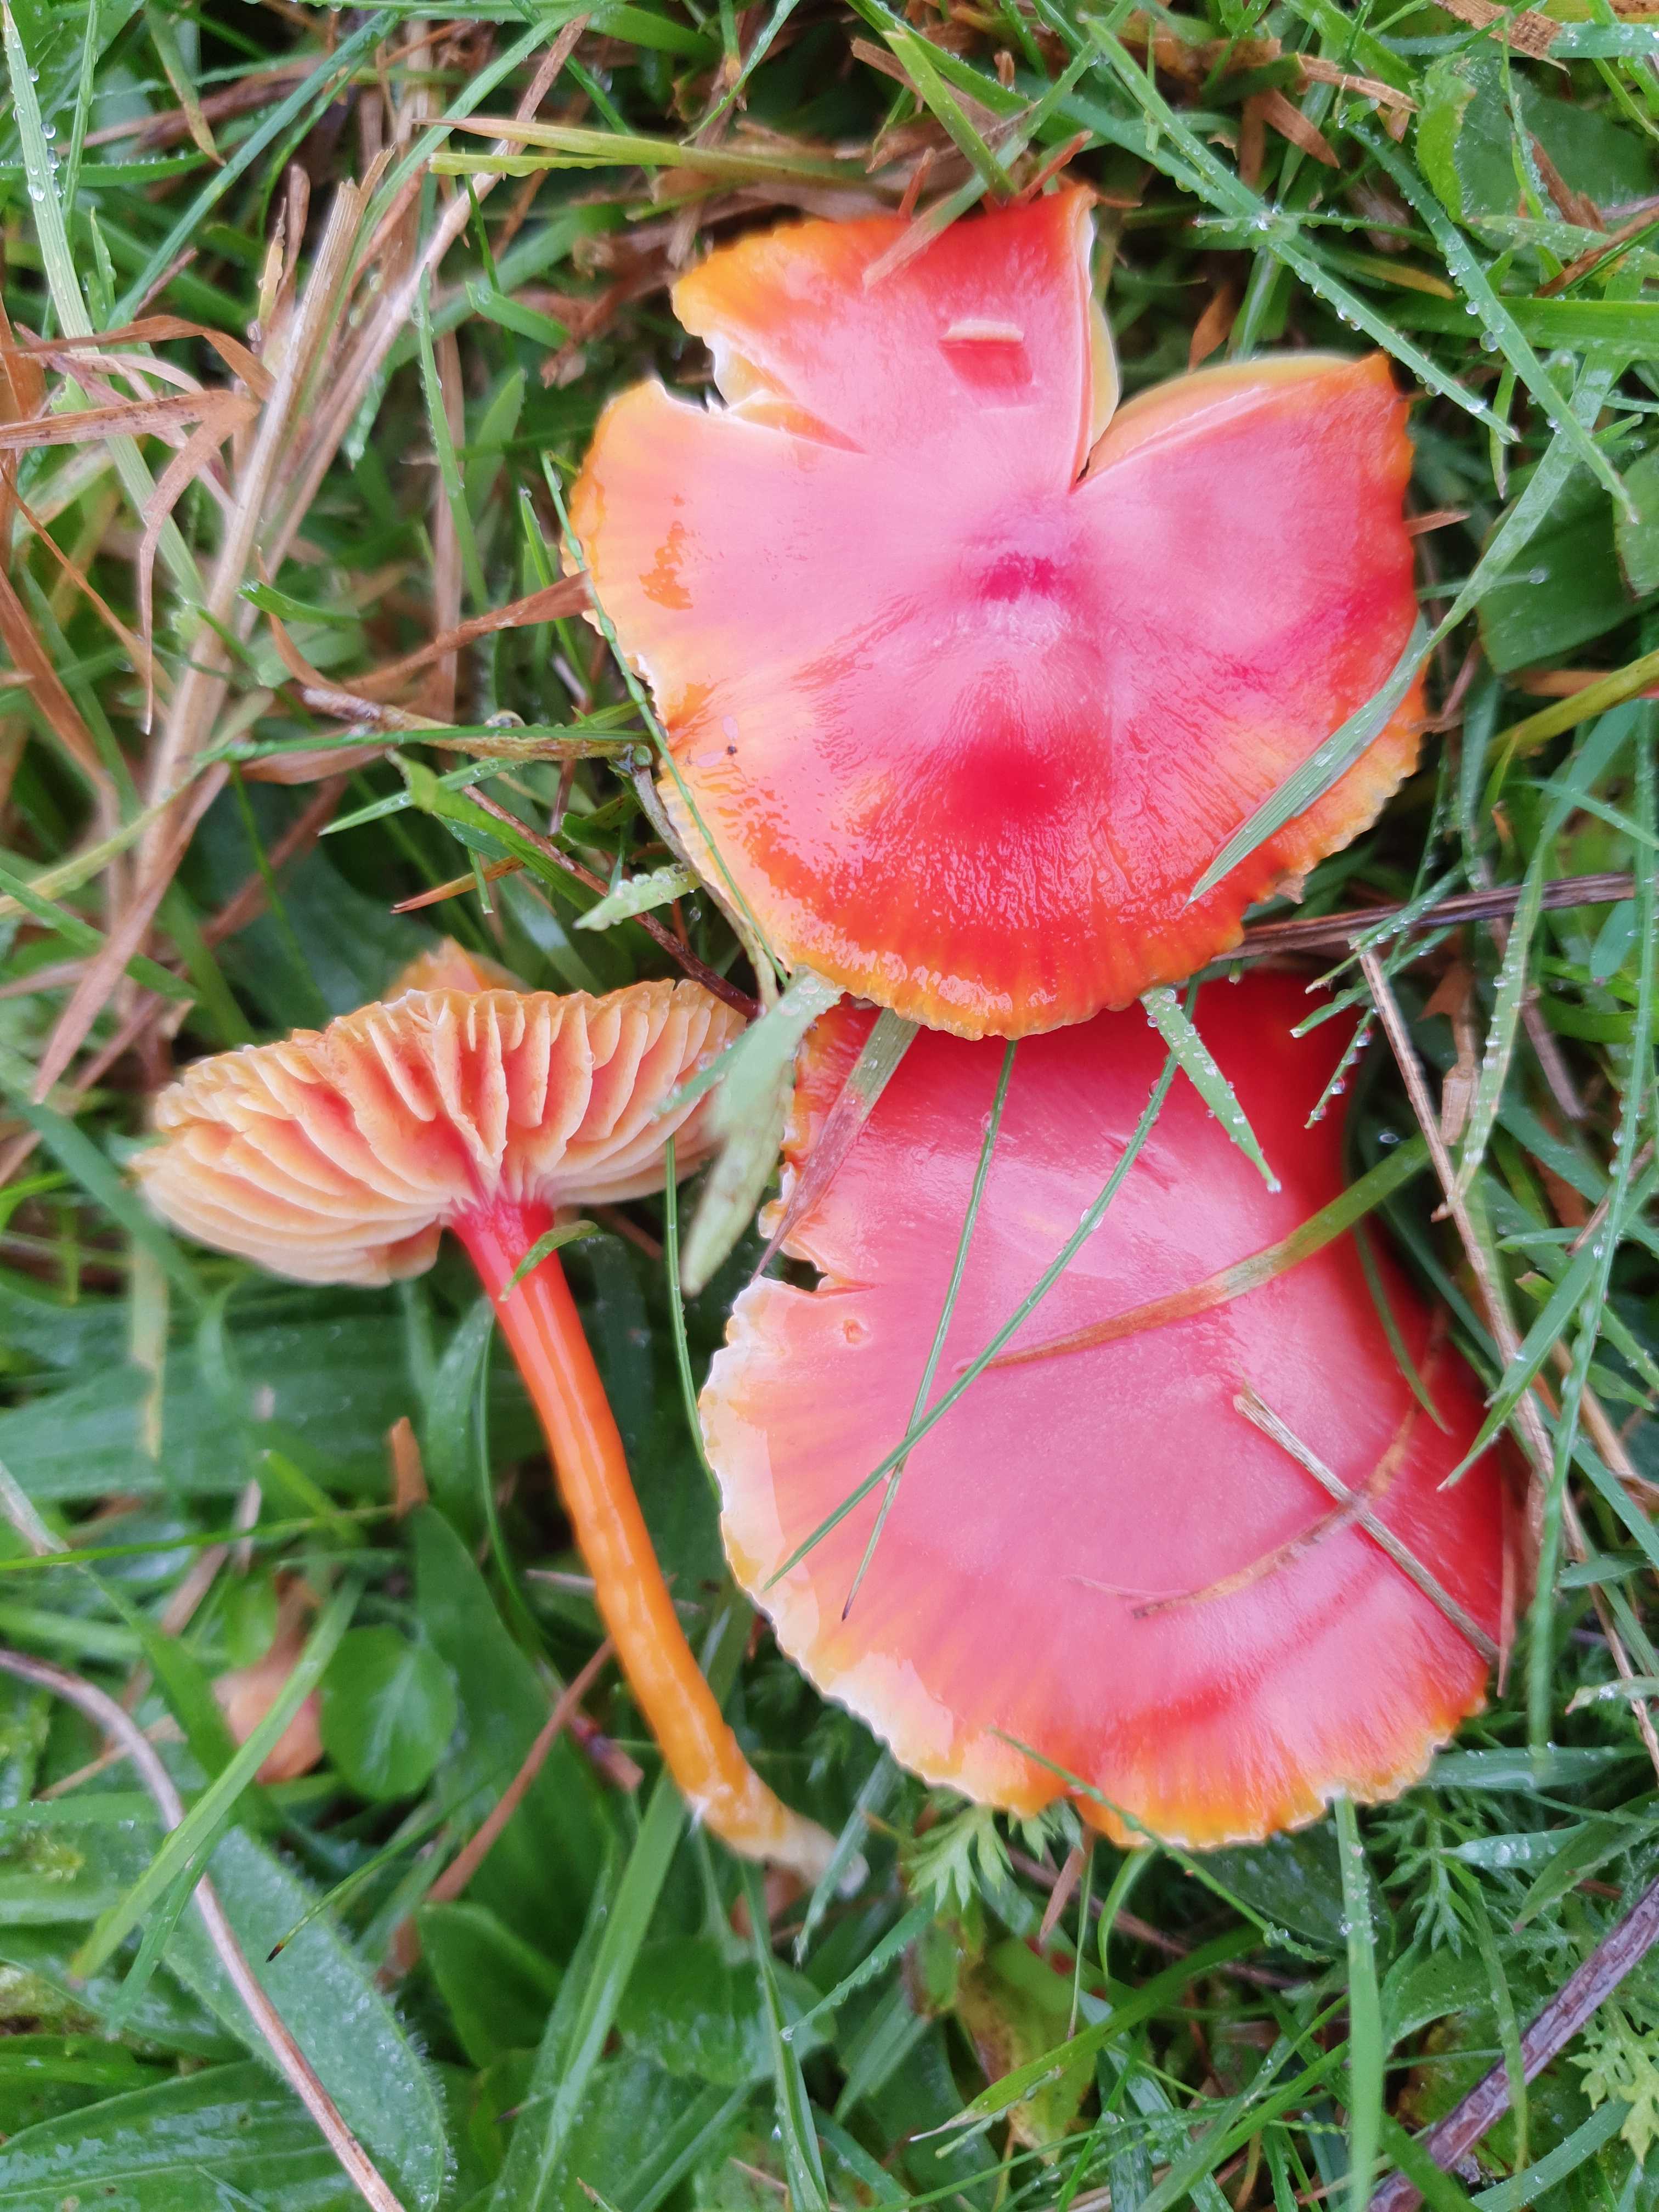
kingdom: Fungi
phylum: Basidiomycota
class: Agaricomycetes
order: Agaricales
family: Hygrophoraceae
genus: Hygrocybe
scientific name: Hygrocybe coccinea
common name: cinnober-vokshat
